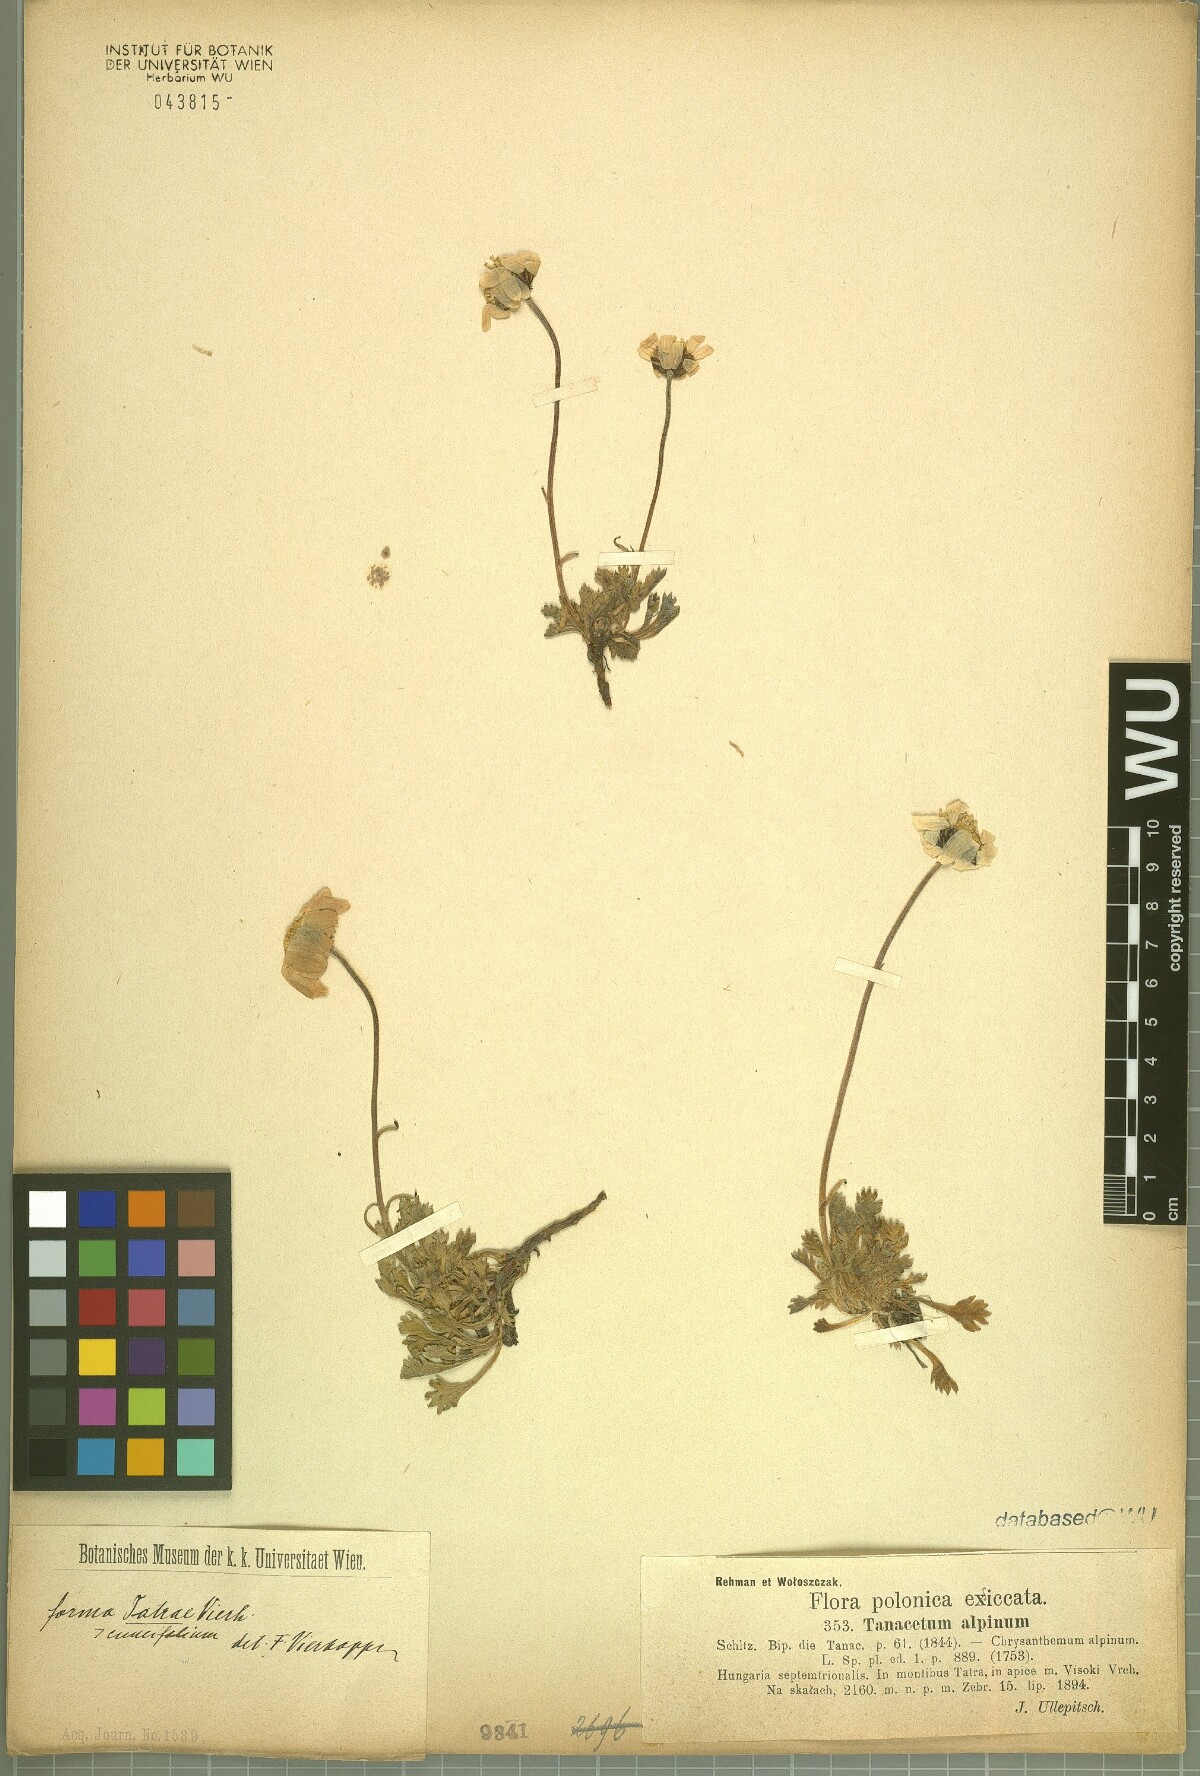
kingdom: Plantae
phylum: Tracheophyta
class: Magnoliopsida
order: Asterales
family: Asteraceae
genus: Leucanthemopsis
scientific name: Leucanthemopsis alpina
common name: Alpine moon daisy
